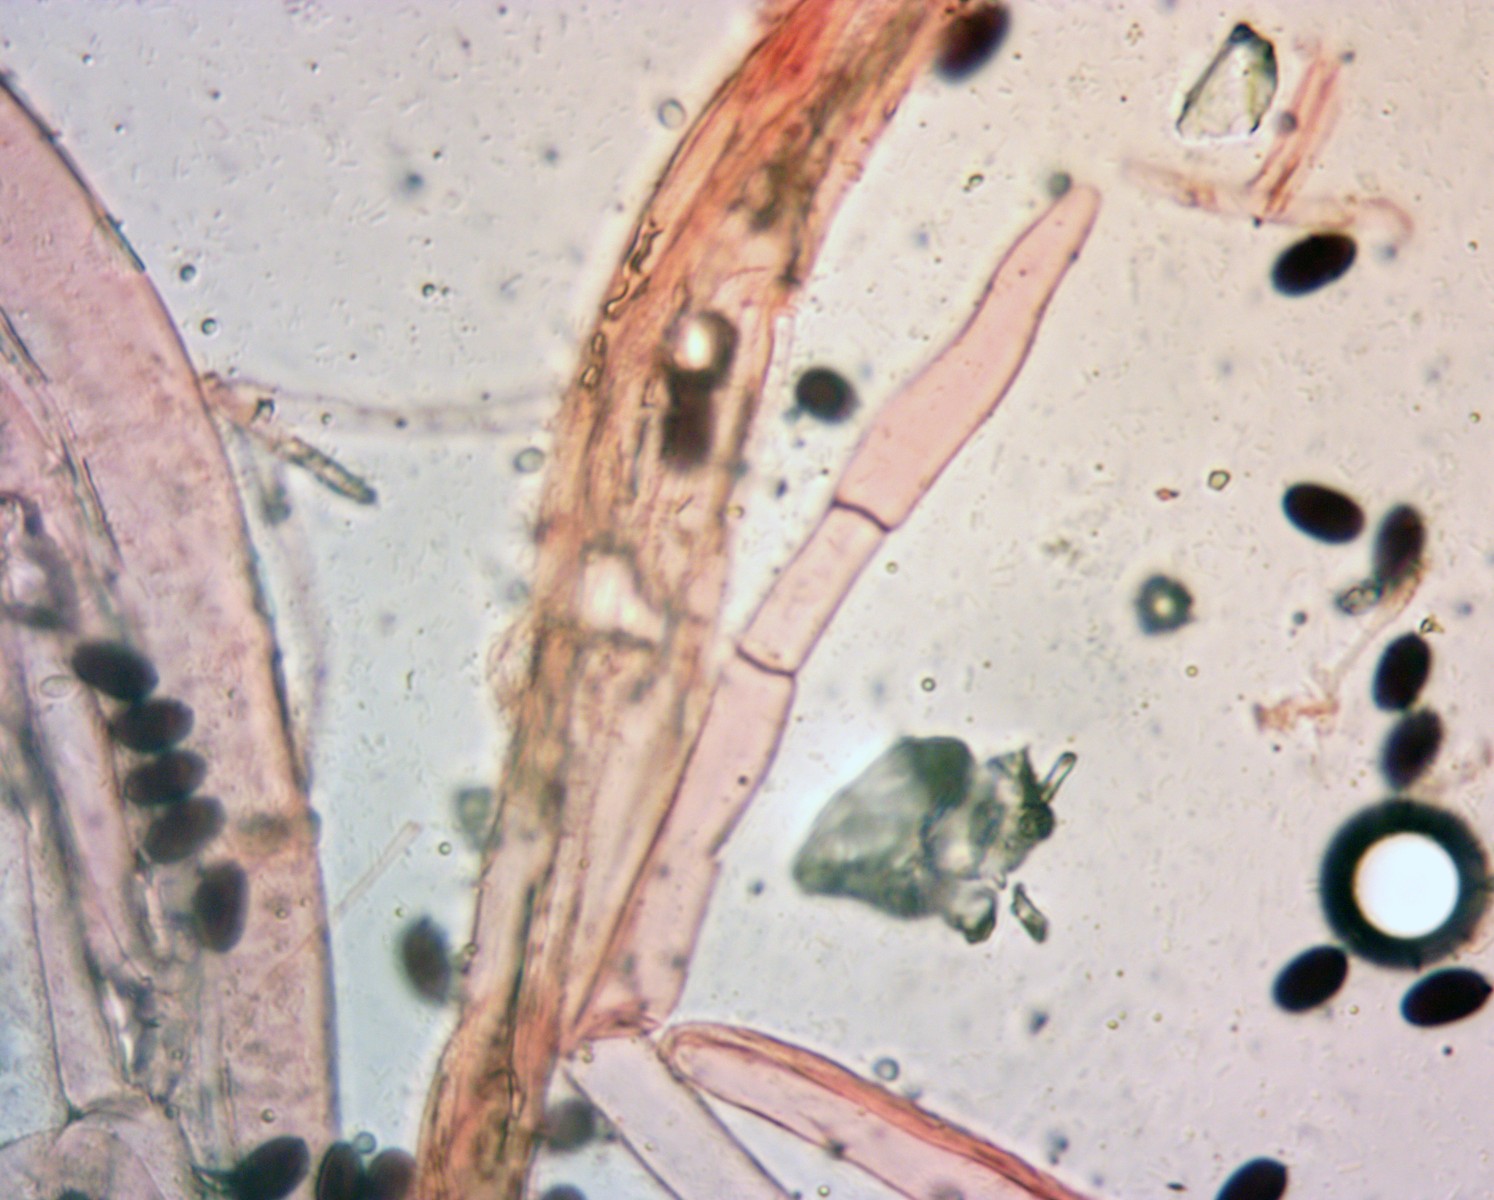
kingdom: Fungi
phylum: Basidiomycota
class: Agaricomycetes
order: Agaricales
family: Psathyrellaceae
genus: Coprinopsis
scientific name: Coprinopsis macrocephala
